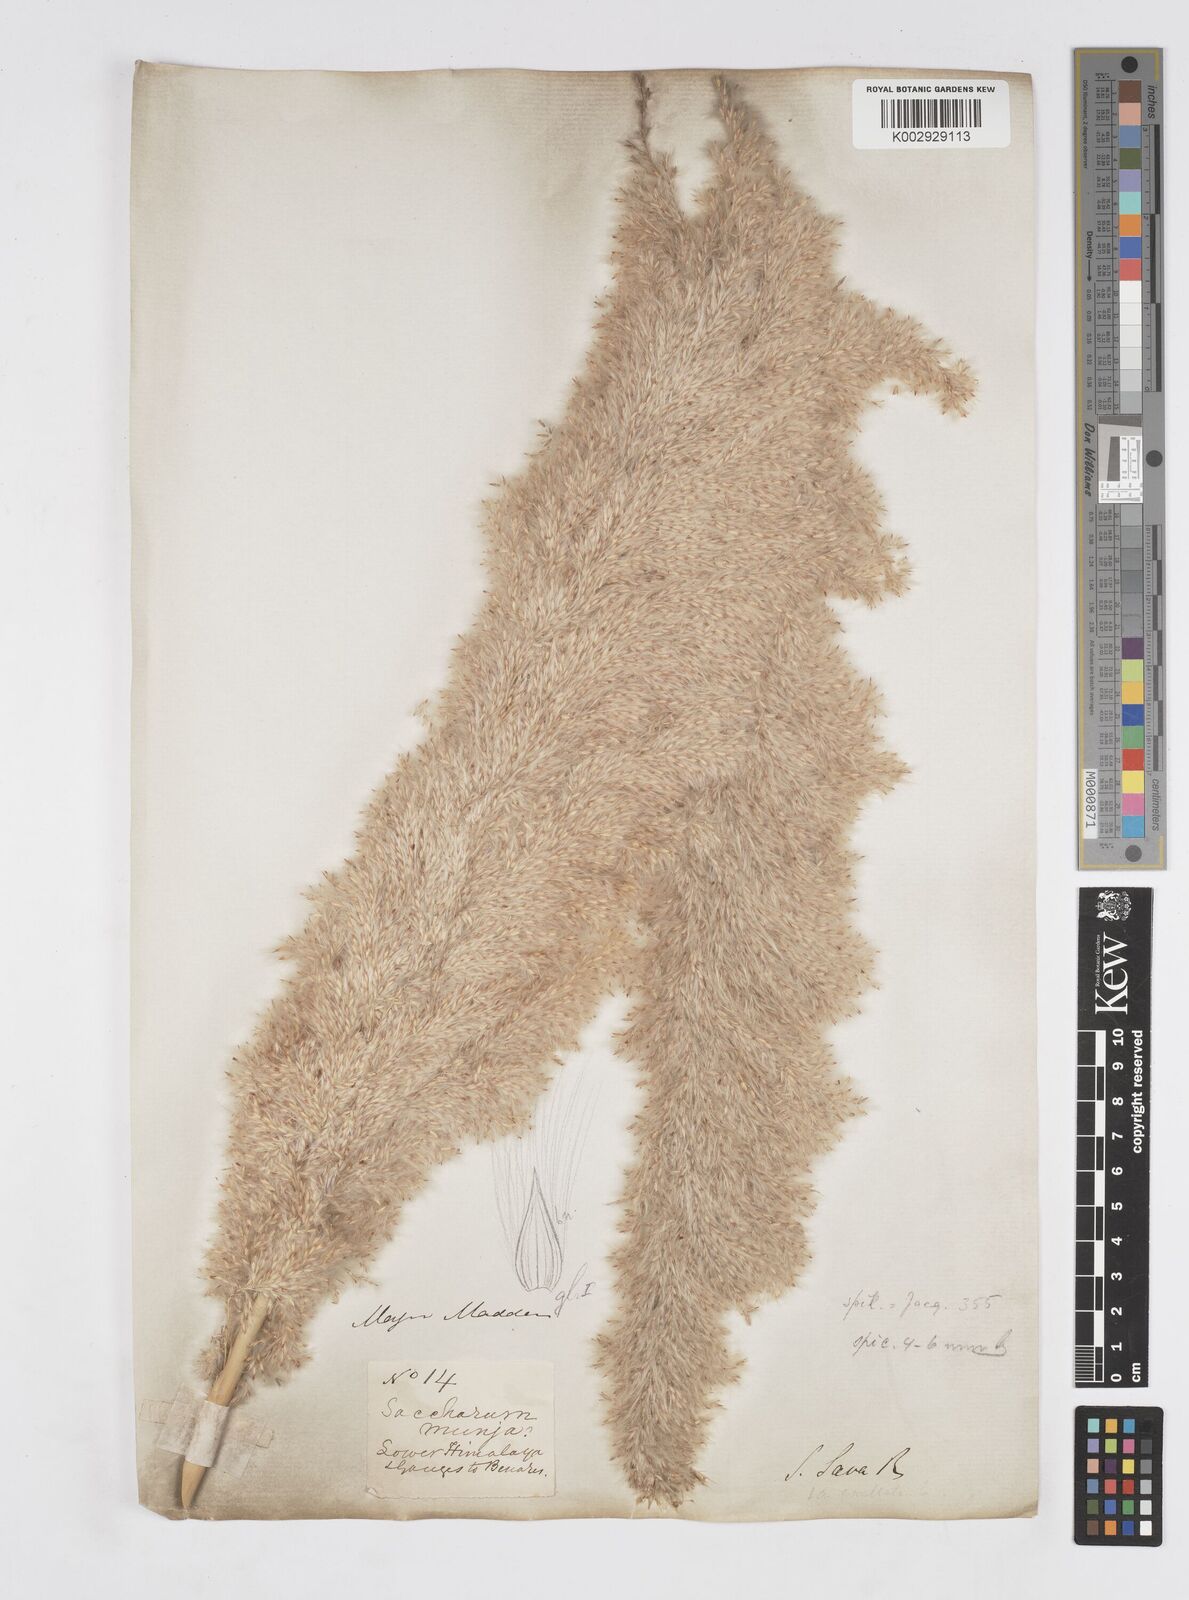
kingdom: Plantae
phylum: Tracheophyta
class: Liliopsida
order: Poales
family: Poaceae
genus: Saccharum
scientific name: Saccharum
